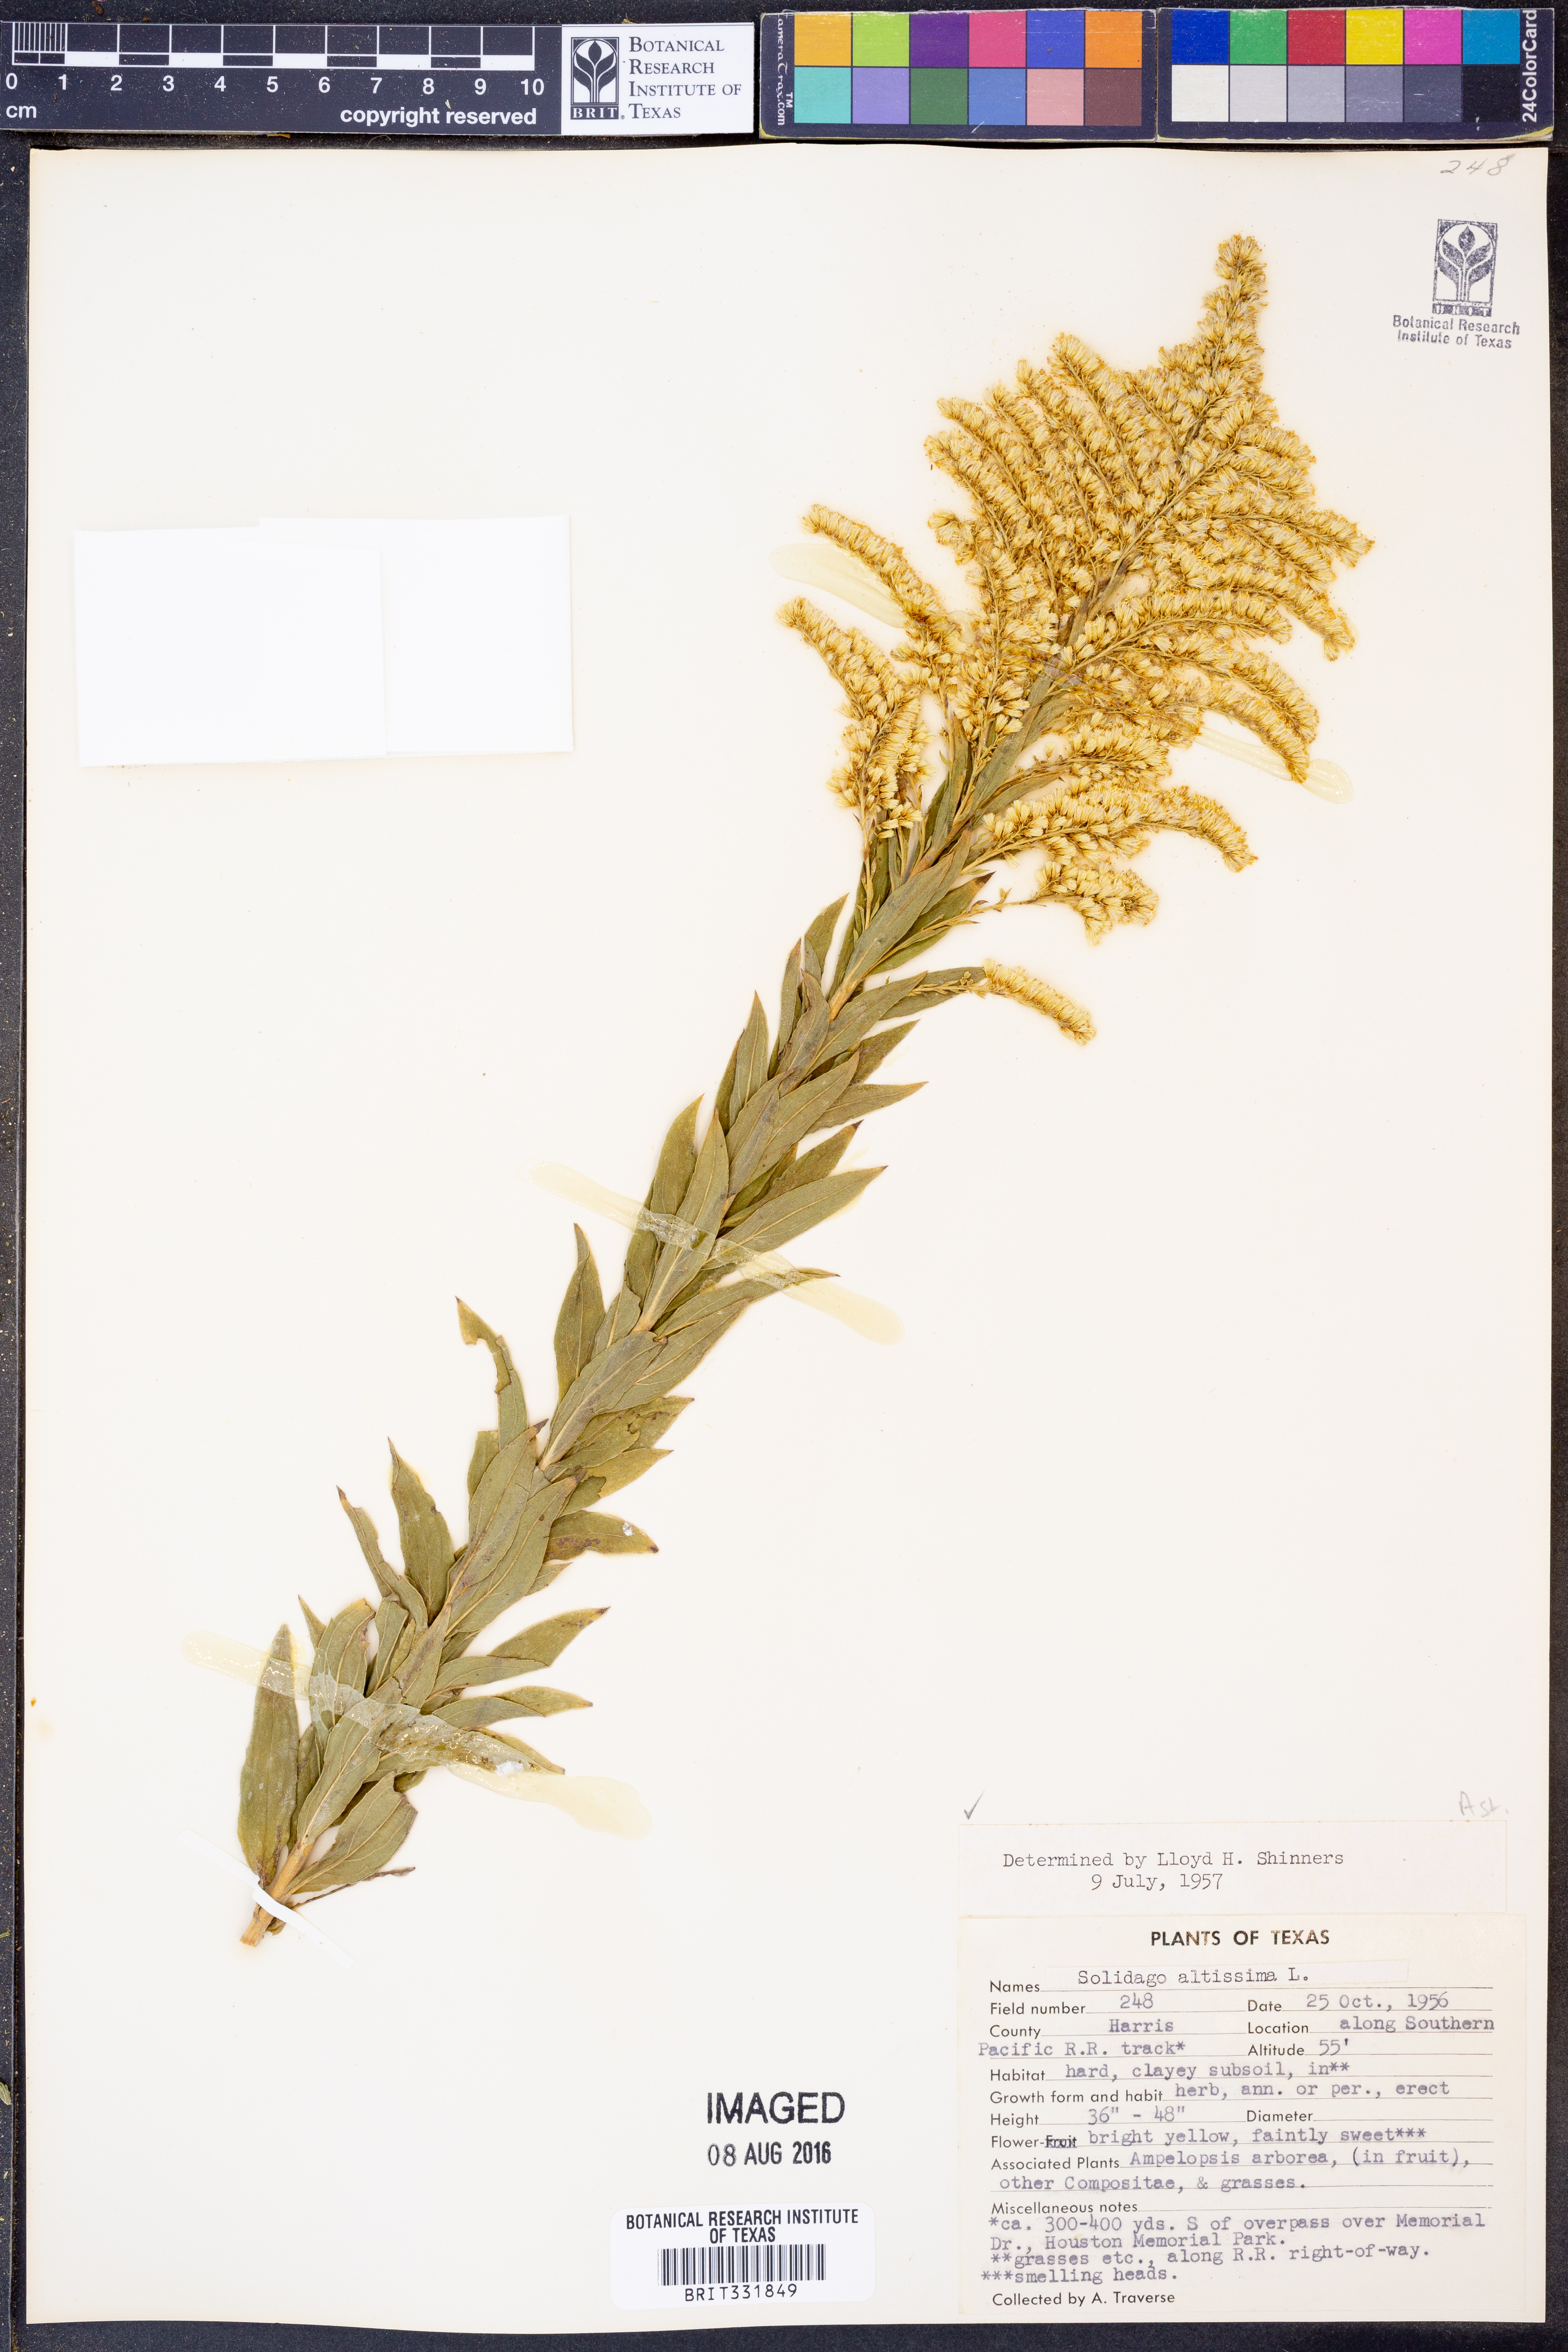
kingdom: Plantae
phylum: Tracheophyta
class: Magnoliopsida
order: Asterales
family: Asteraceae
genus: Solidago
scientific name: Solidago altissima
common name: Late goldenrod
